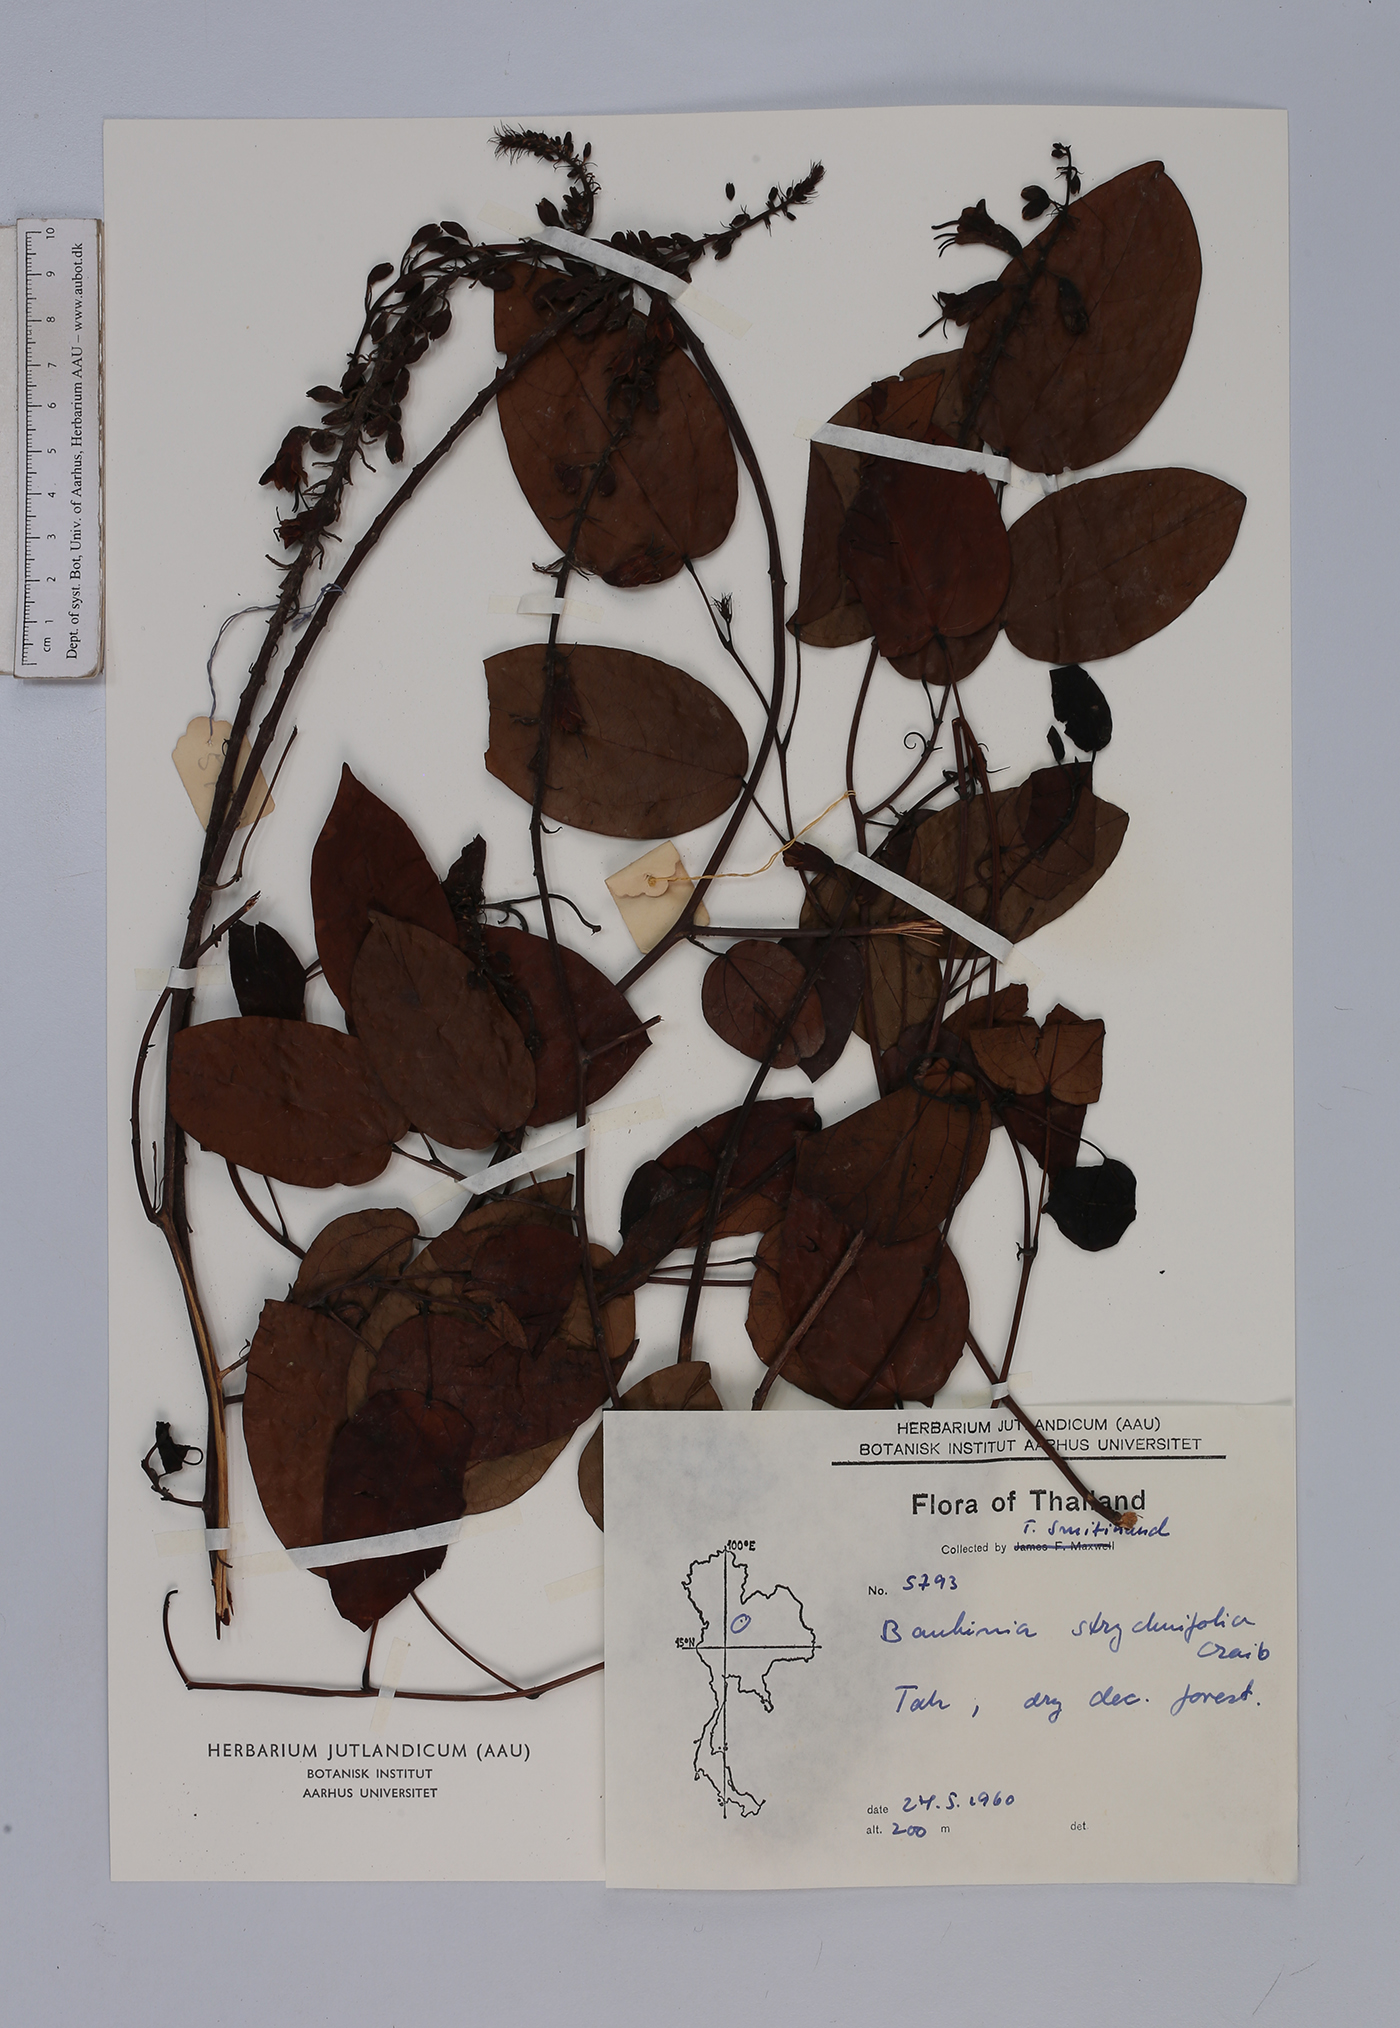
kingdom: Plantae
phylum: Tracheophyta
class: Magnoliopsida
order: Fabales
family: Fabaceae
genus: Lysiphyllum
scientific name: Lysiphyllum strychnifolium
